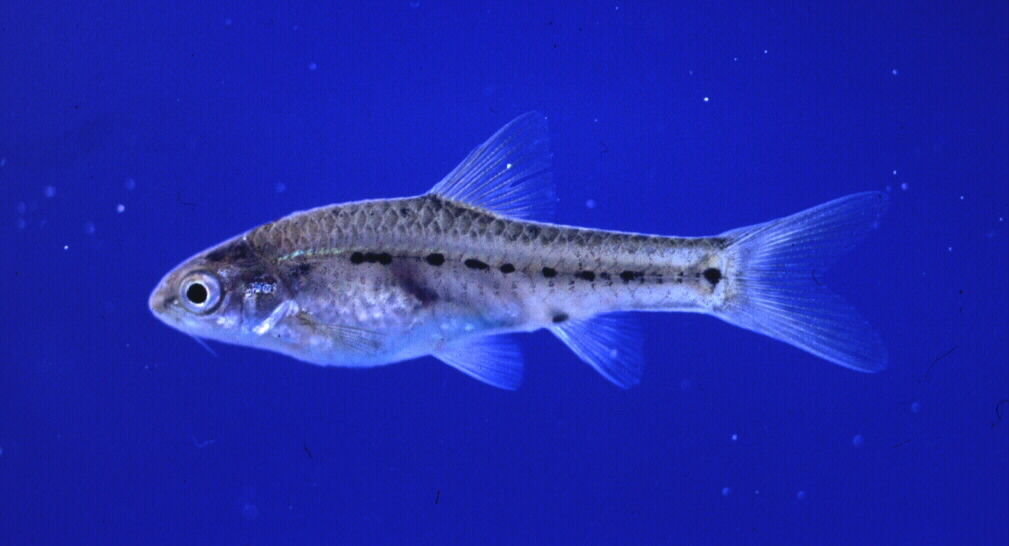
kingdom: Animalia
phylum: Chordata
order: Cypriniformes
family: Cyprinidae
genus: Enteromius
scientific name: Enteromius brevipinnis
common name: Shortfin barb
